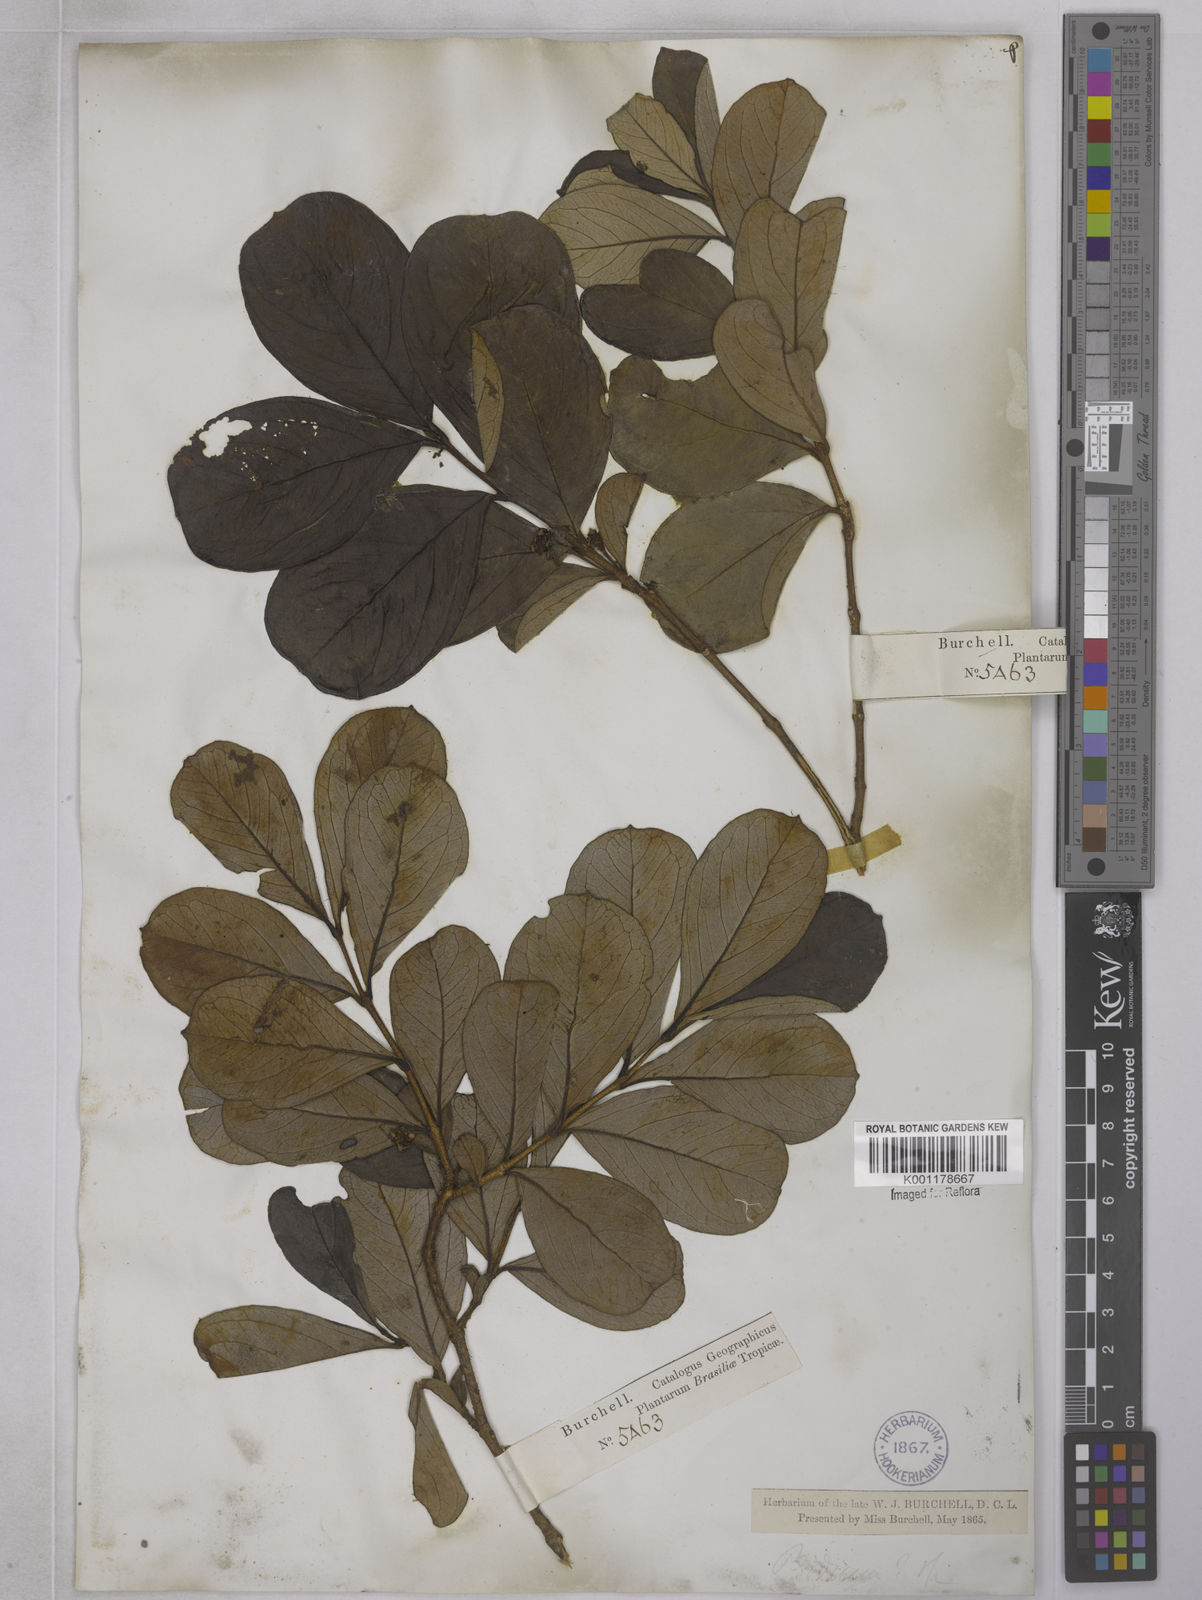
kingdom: Plantae
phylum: Tracheophyta
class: Magnoliopsida
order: Myrtales
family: Myrtaceae
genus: Psidium
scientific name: Psidium grandifolium
